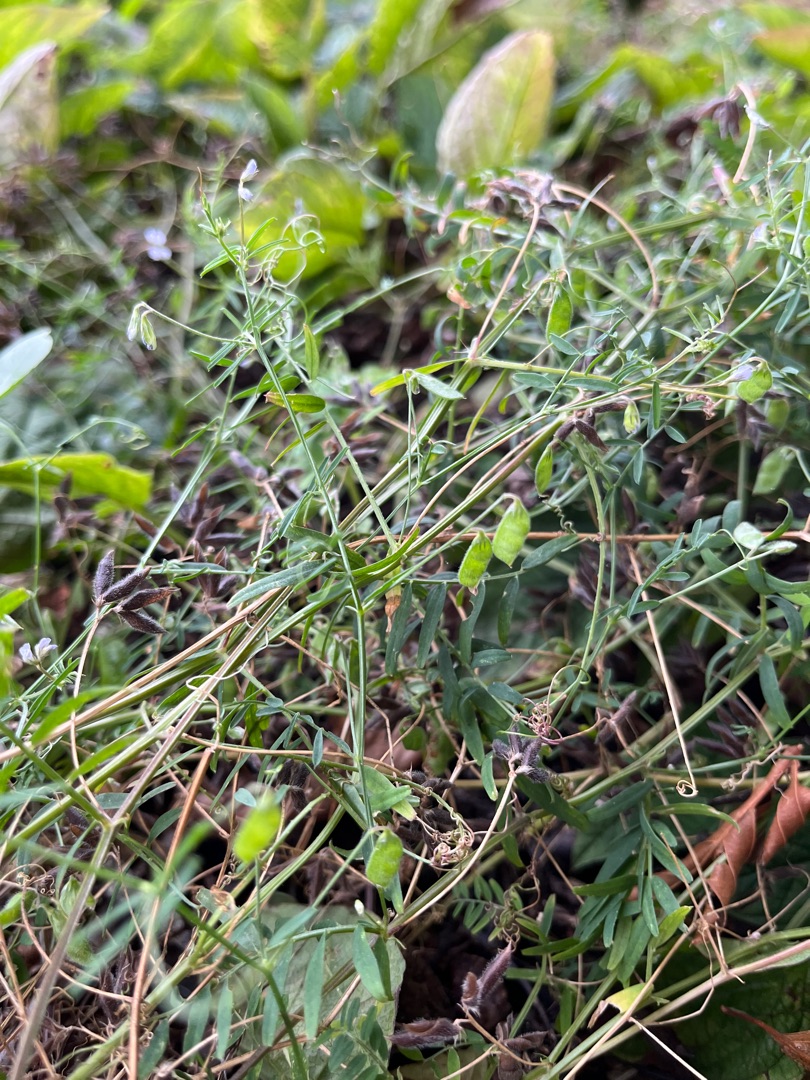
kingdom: Plantae
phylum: Tracheophyta
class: Magnoliopsida
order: Fabales
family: Fabaceae
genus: Vicia
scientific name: Vicia hirsuta
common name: Tofrøet vikke
